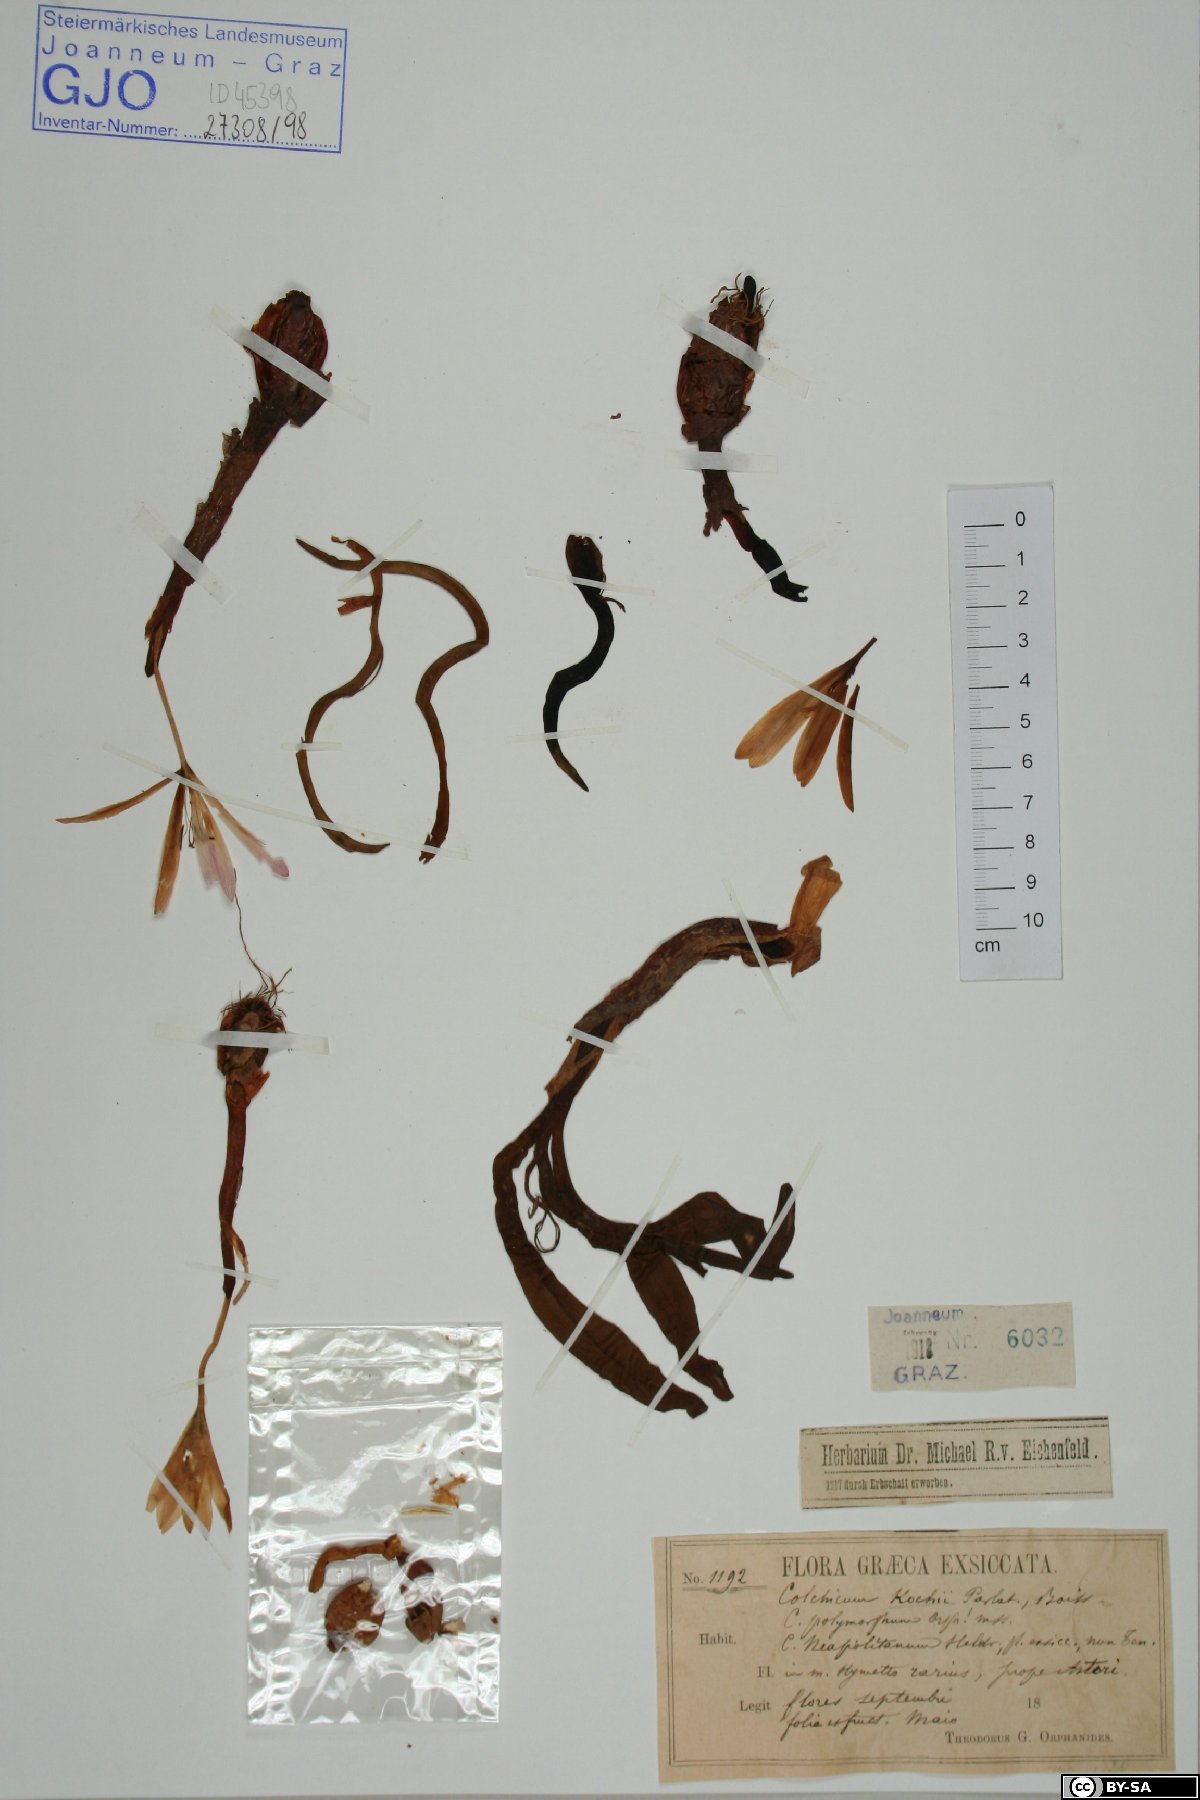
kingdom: Plantae
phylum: Tracheophyta
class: Liliopsida
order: Liliales
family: Colchicaceae
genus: Colchicum
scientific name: Colchicum haynaldii
